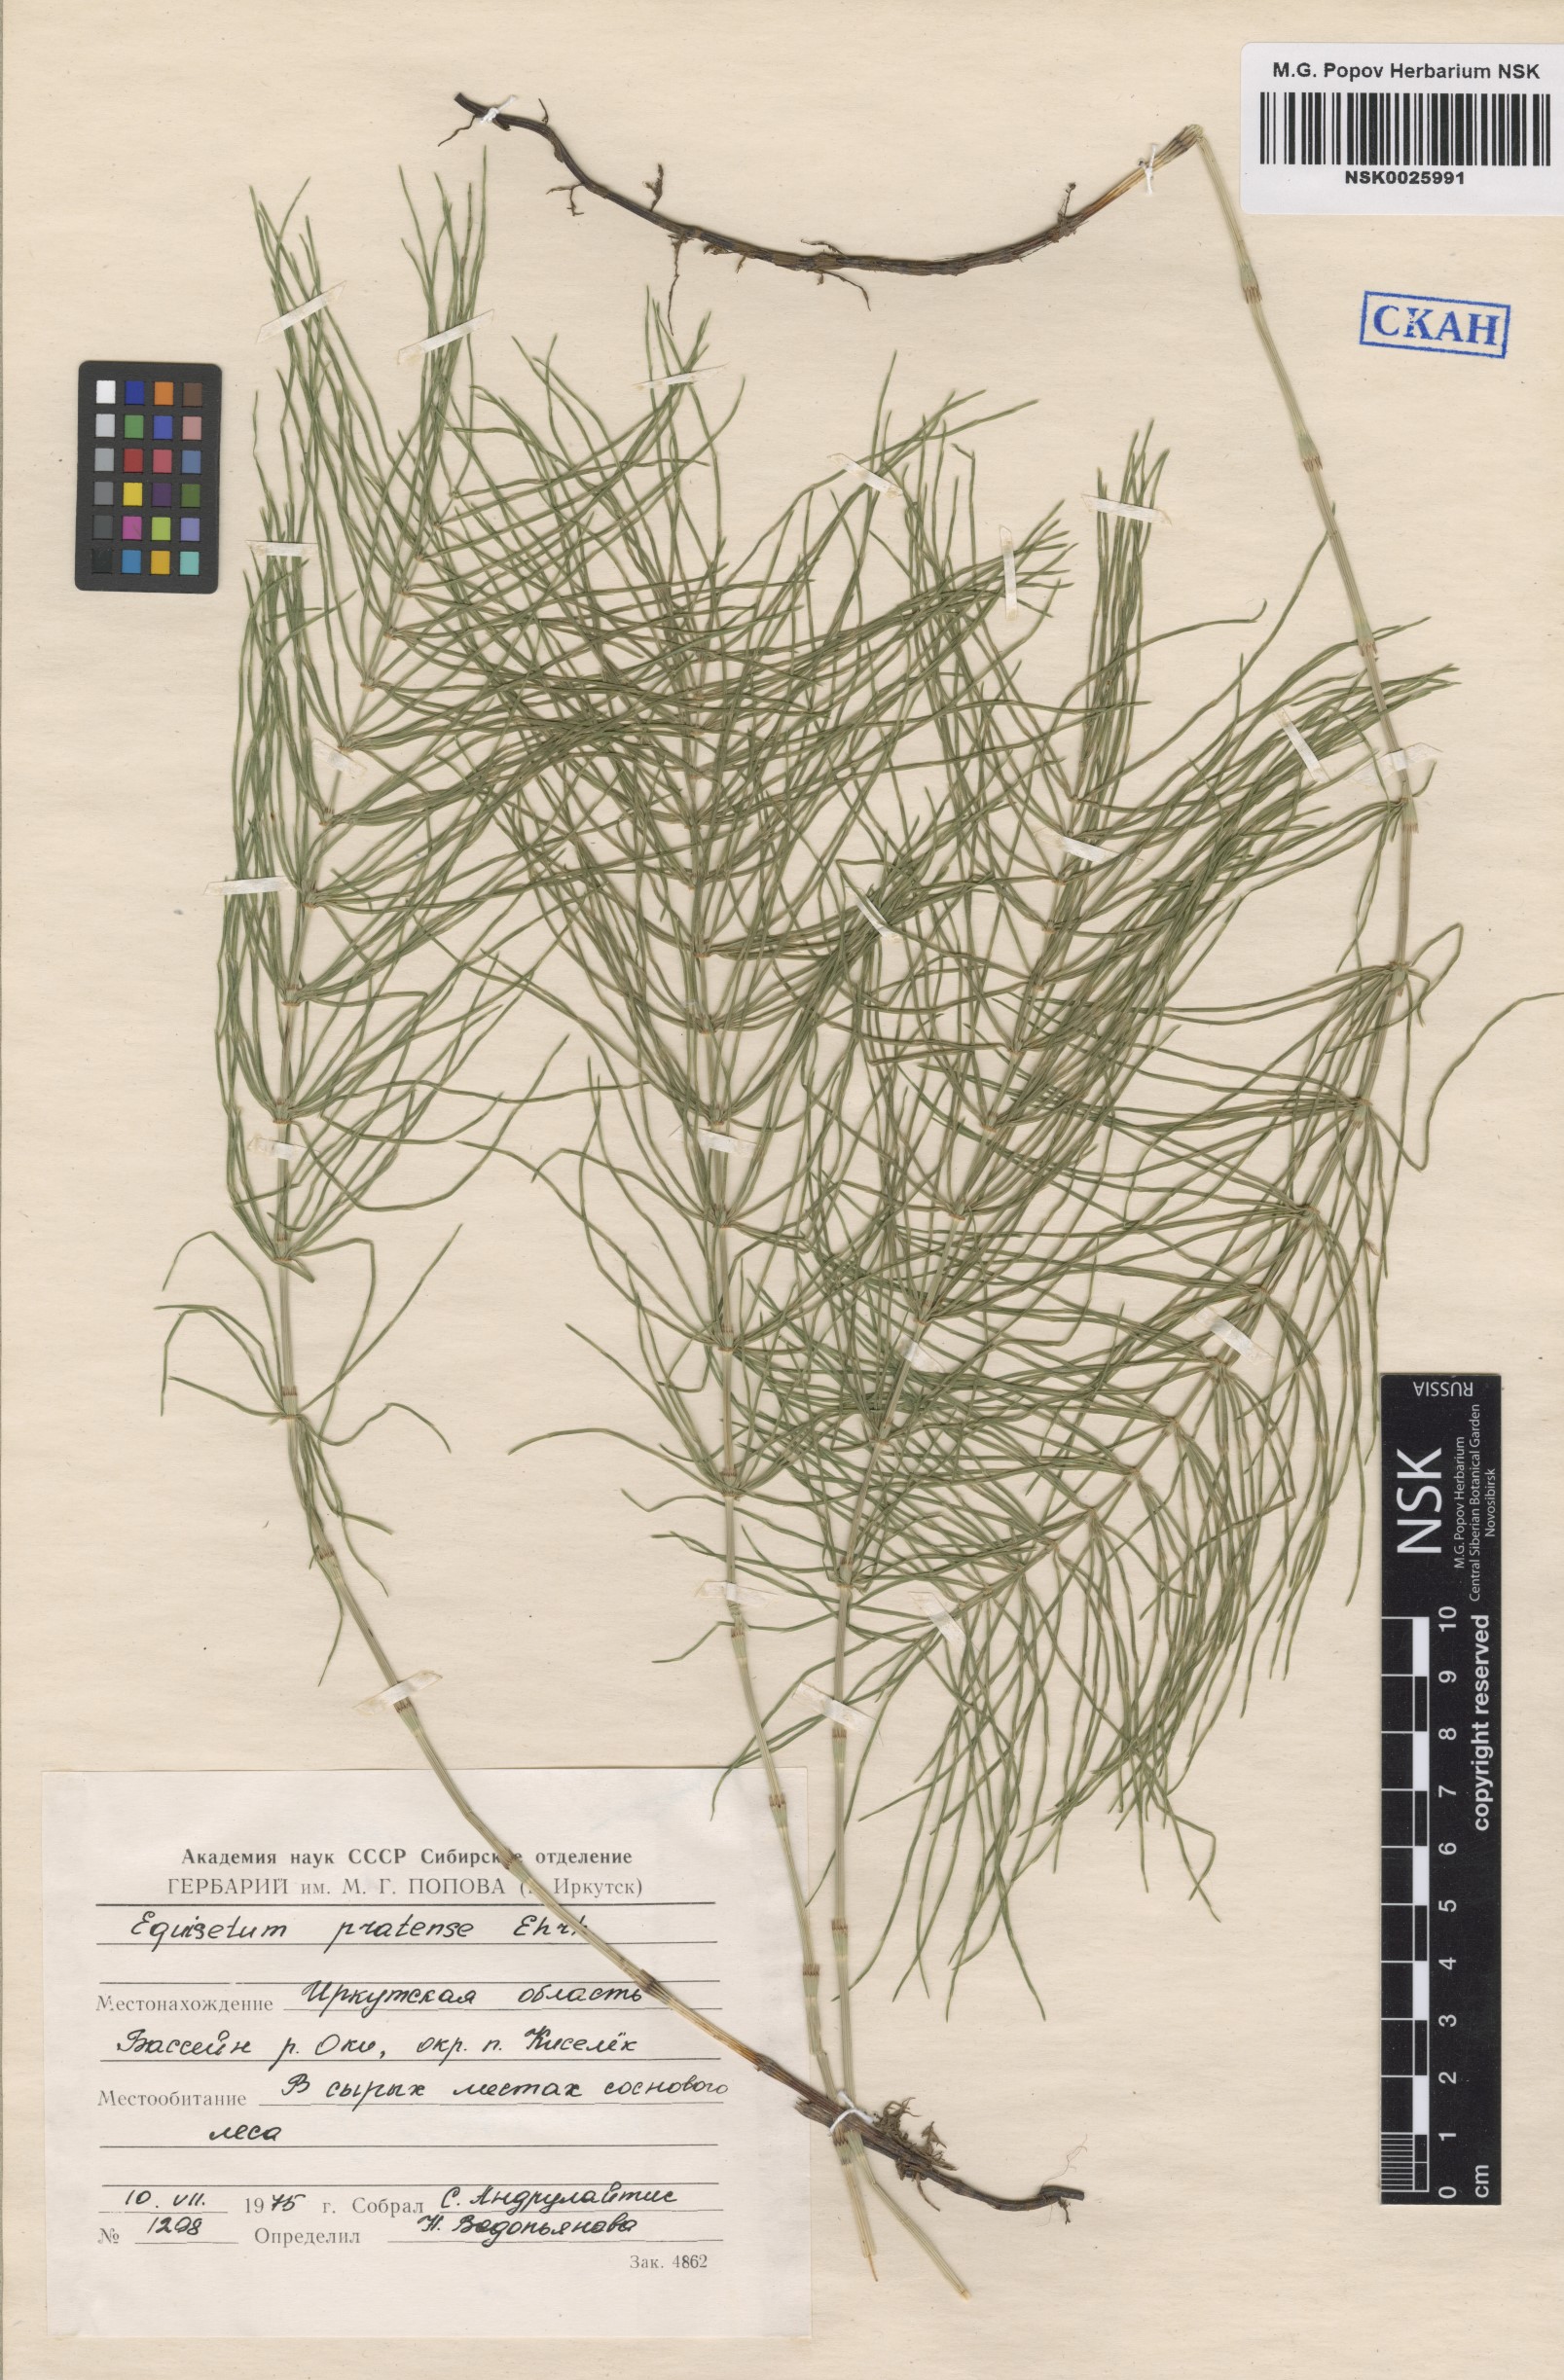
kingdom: Plantae
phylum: Tracheophyta
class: Polypodiopsida
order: Equisetales
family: Equisetaceae
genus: Equisetum
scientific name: Equisetum pratense
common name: Meadow horsetail
